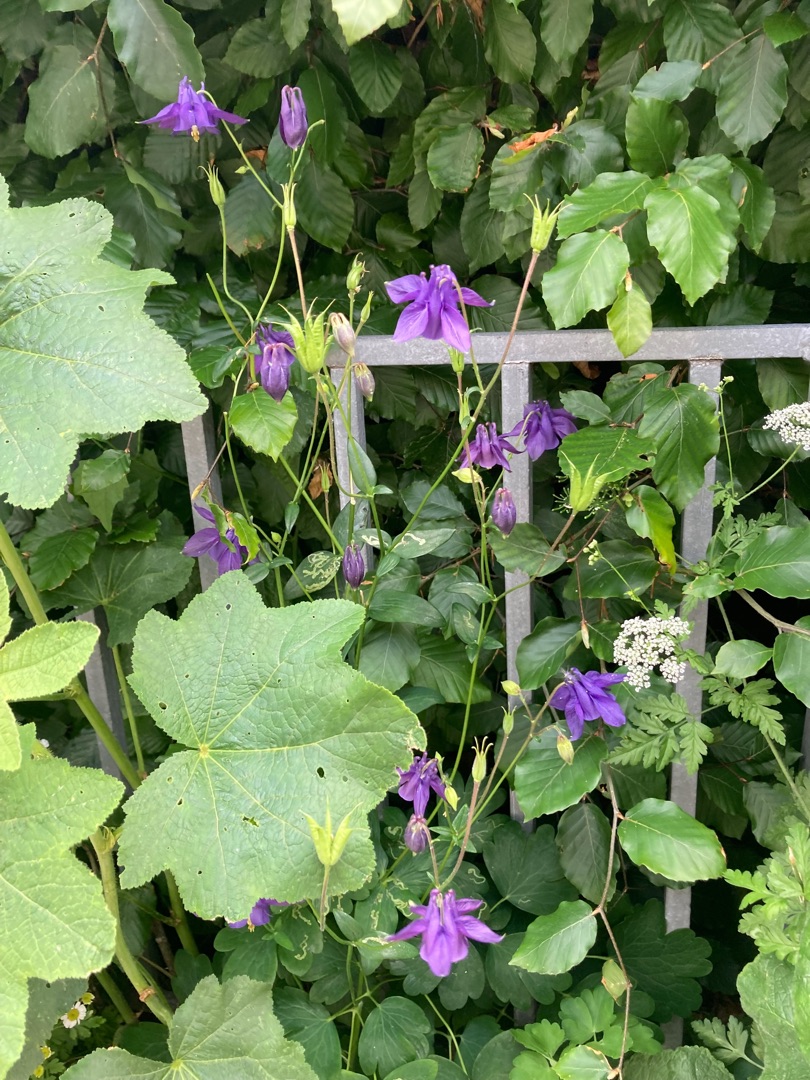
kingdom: Plantae
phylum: Tracheophyta
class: Magnoliopsida
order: Ranunculales
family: Ranunculaceae
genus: Aquilegia
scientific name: Aquilegia vulgaris
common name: Akeleje
